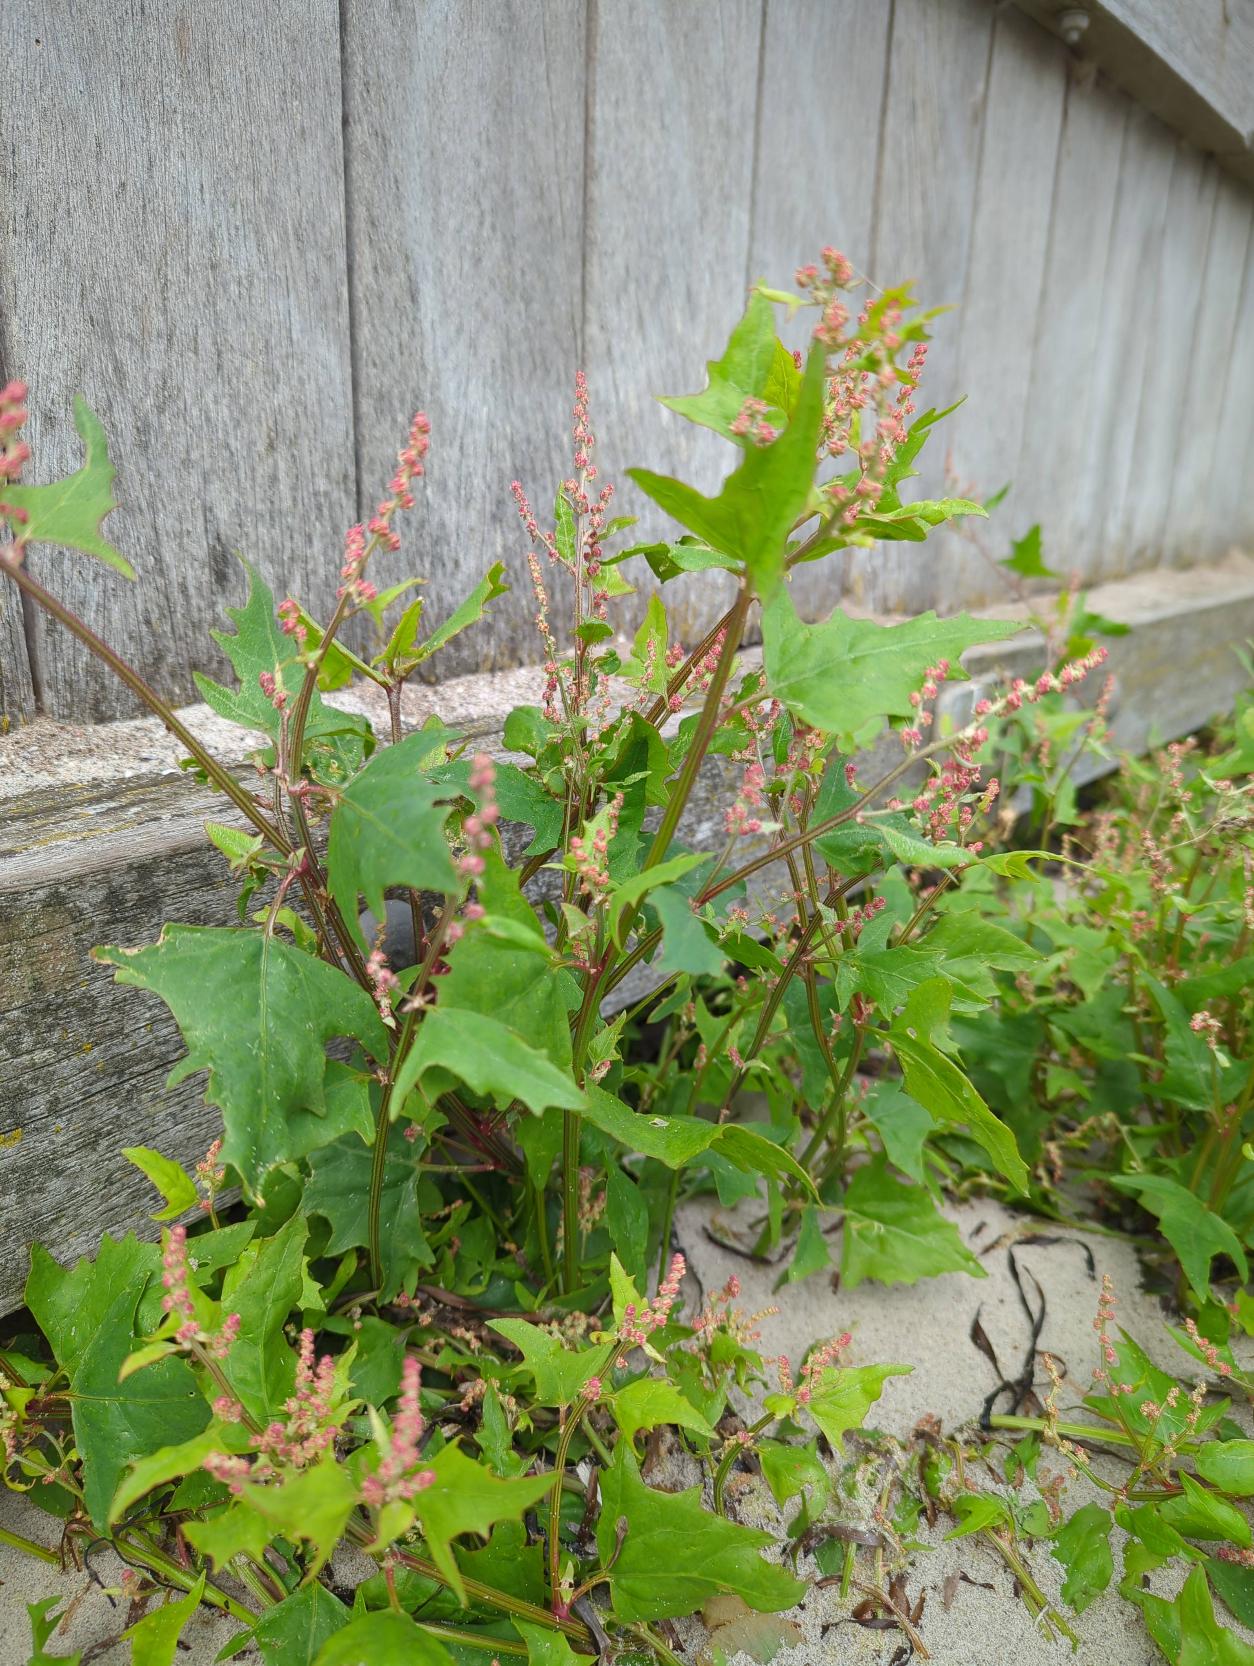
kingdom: Plantae
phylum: Tracheophyta
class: Magnoliopsida
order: Caryophyllales
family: Amaranthaceae
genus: Atriplex
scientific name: Atriplex prostrata
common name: Spyd-mælde
